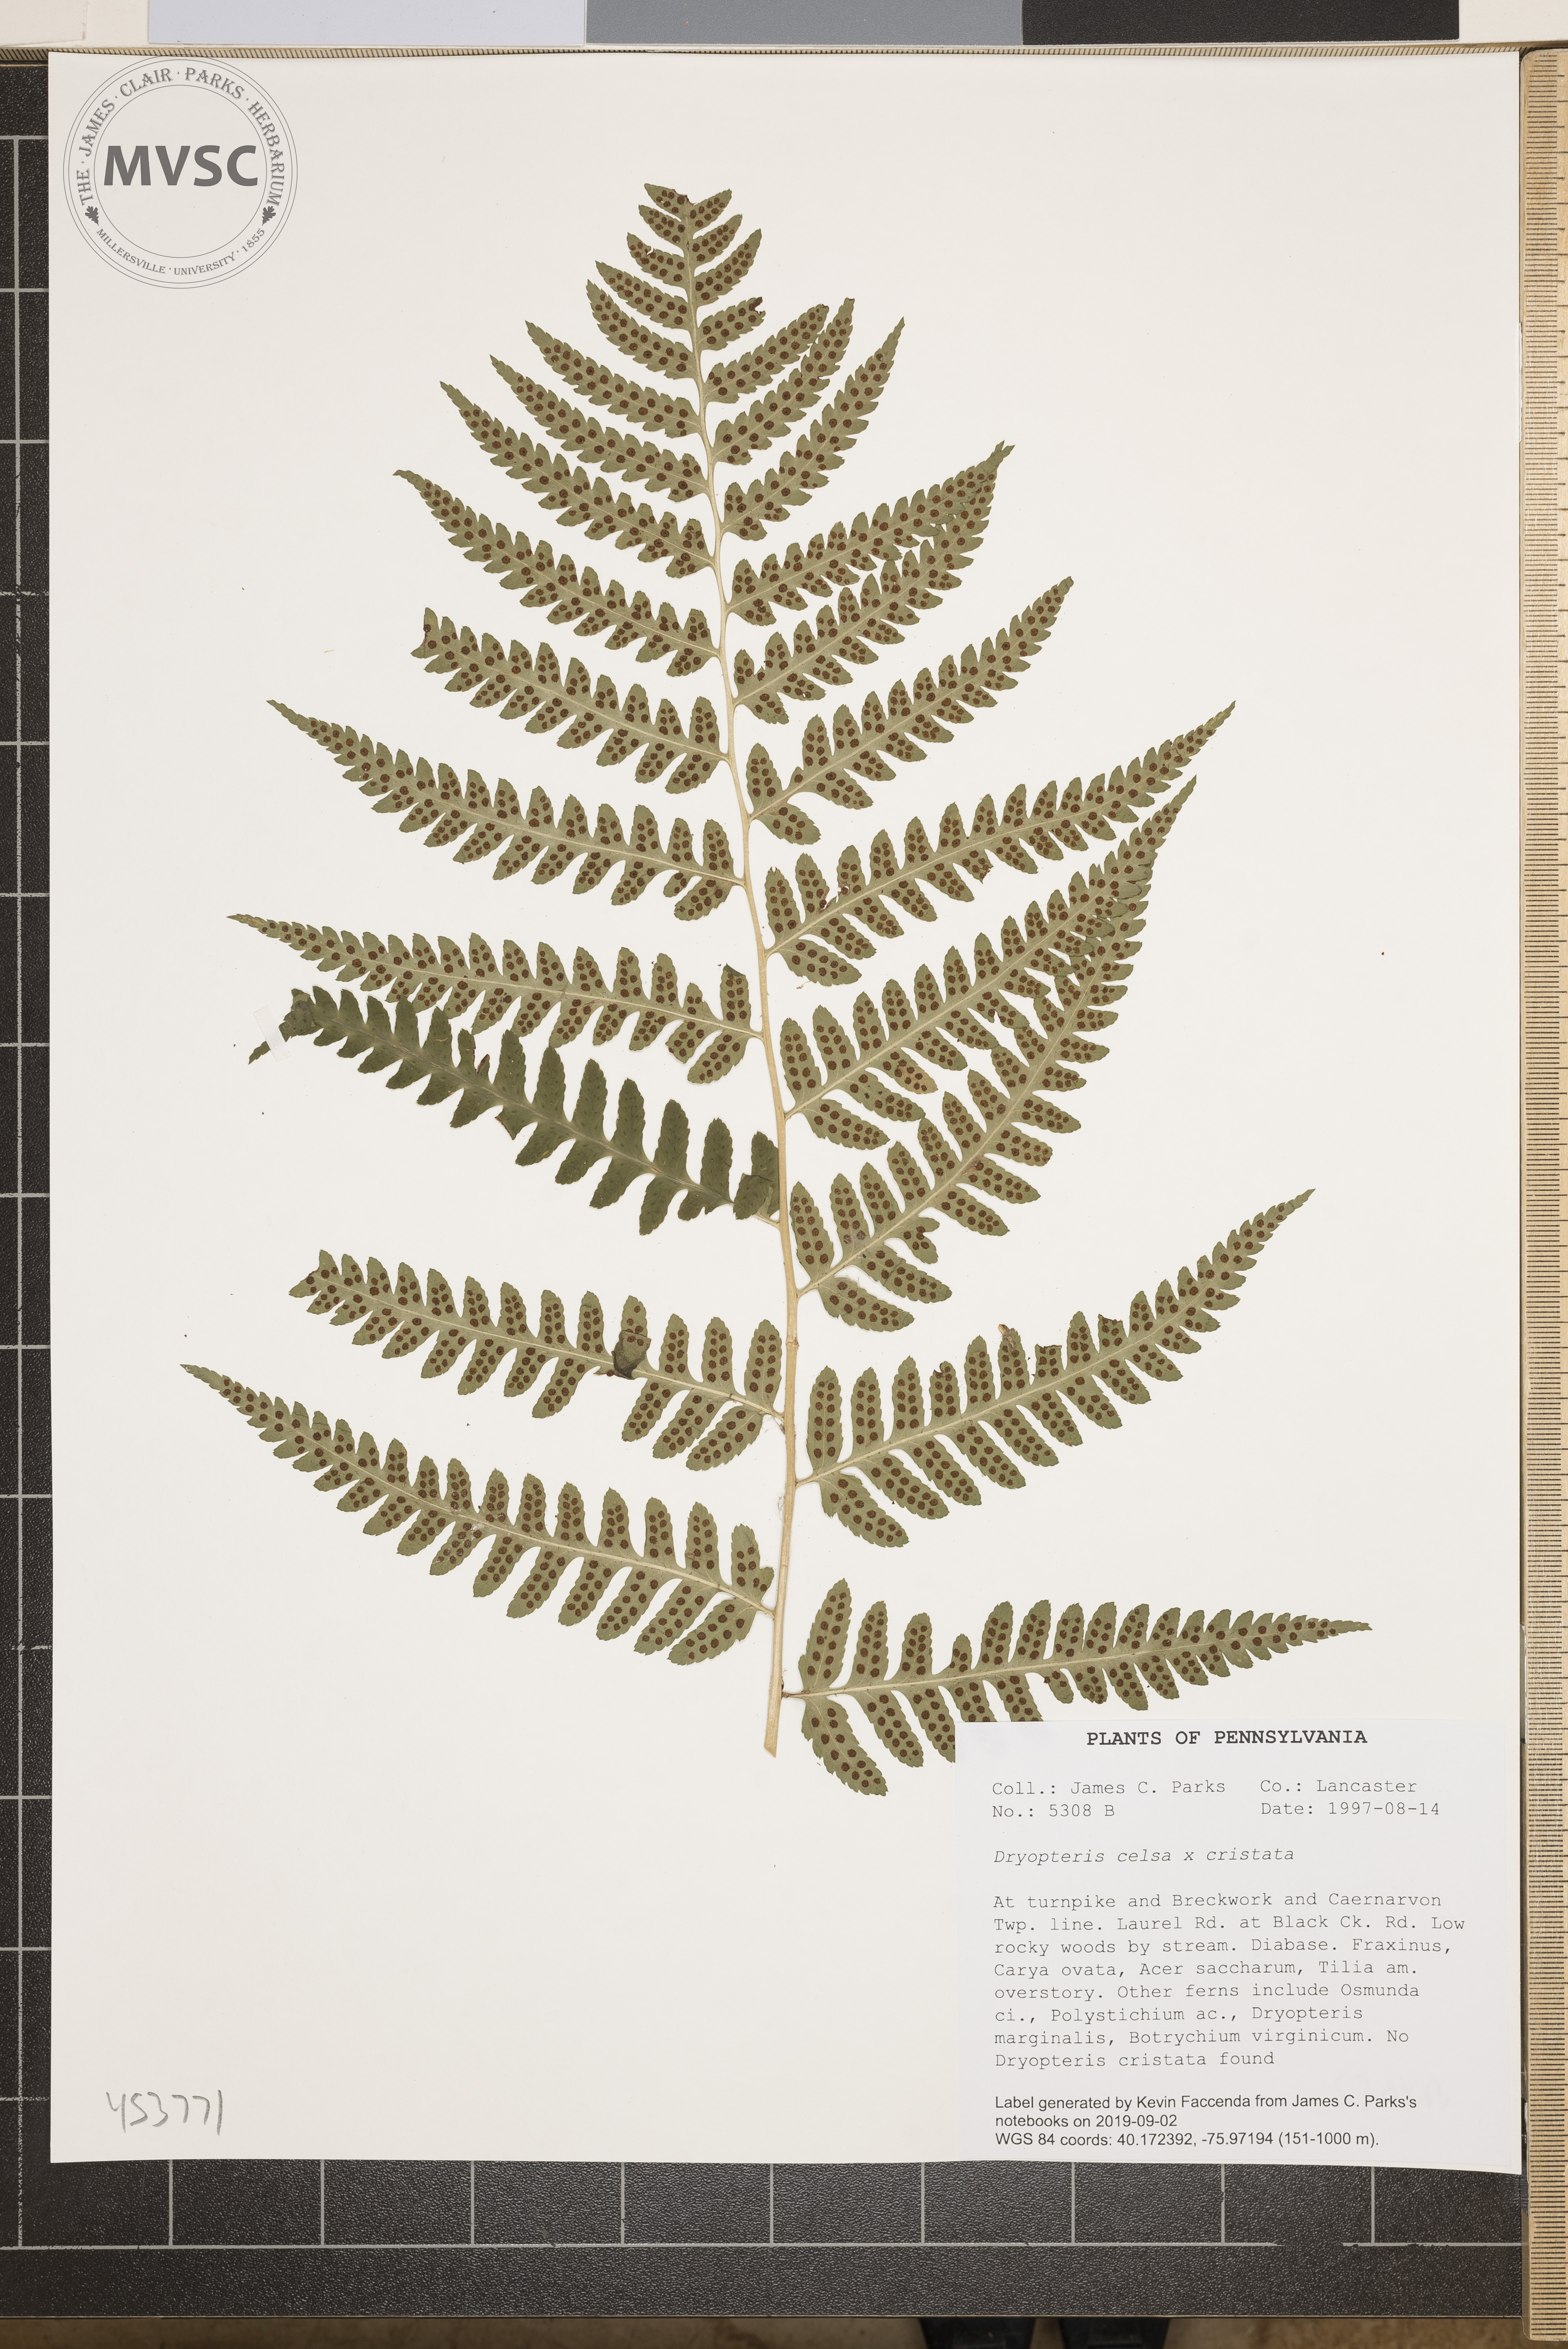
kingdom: Plantae
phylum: Tracheophyta
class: Polypodiopsida
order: Polypodiales
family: Dryopteridaceae
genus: Dryopteris
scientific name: Dryopteris
